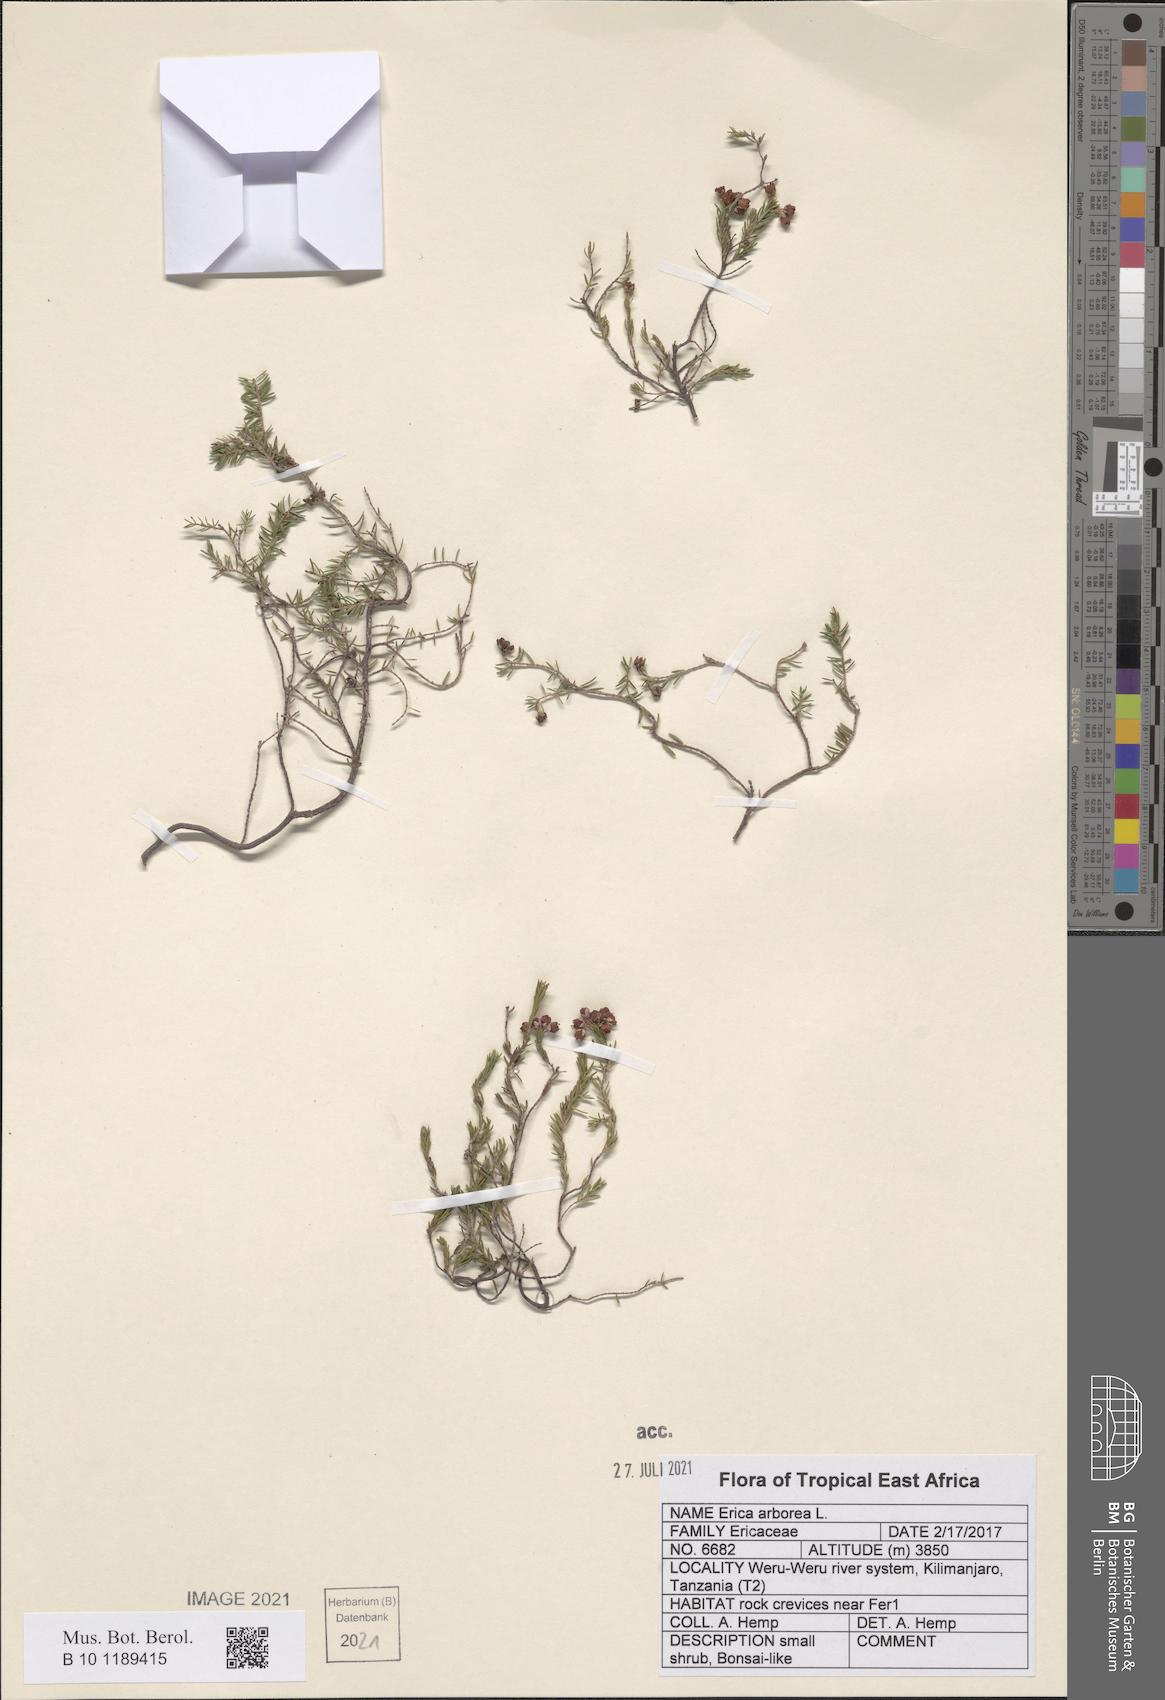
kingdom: Plantae
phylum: Tracheophyta
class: Magnoliopsida
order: Ericales
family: Ericaceae
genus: Erica
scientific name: Erica arborea
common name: Tree heath
